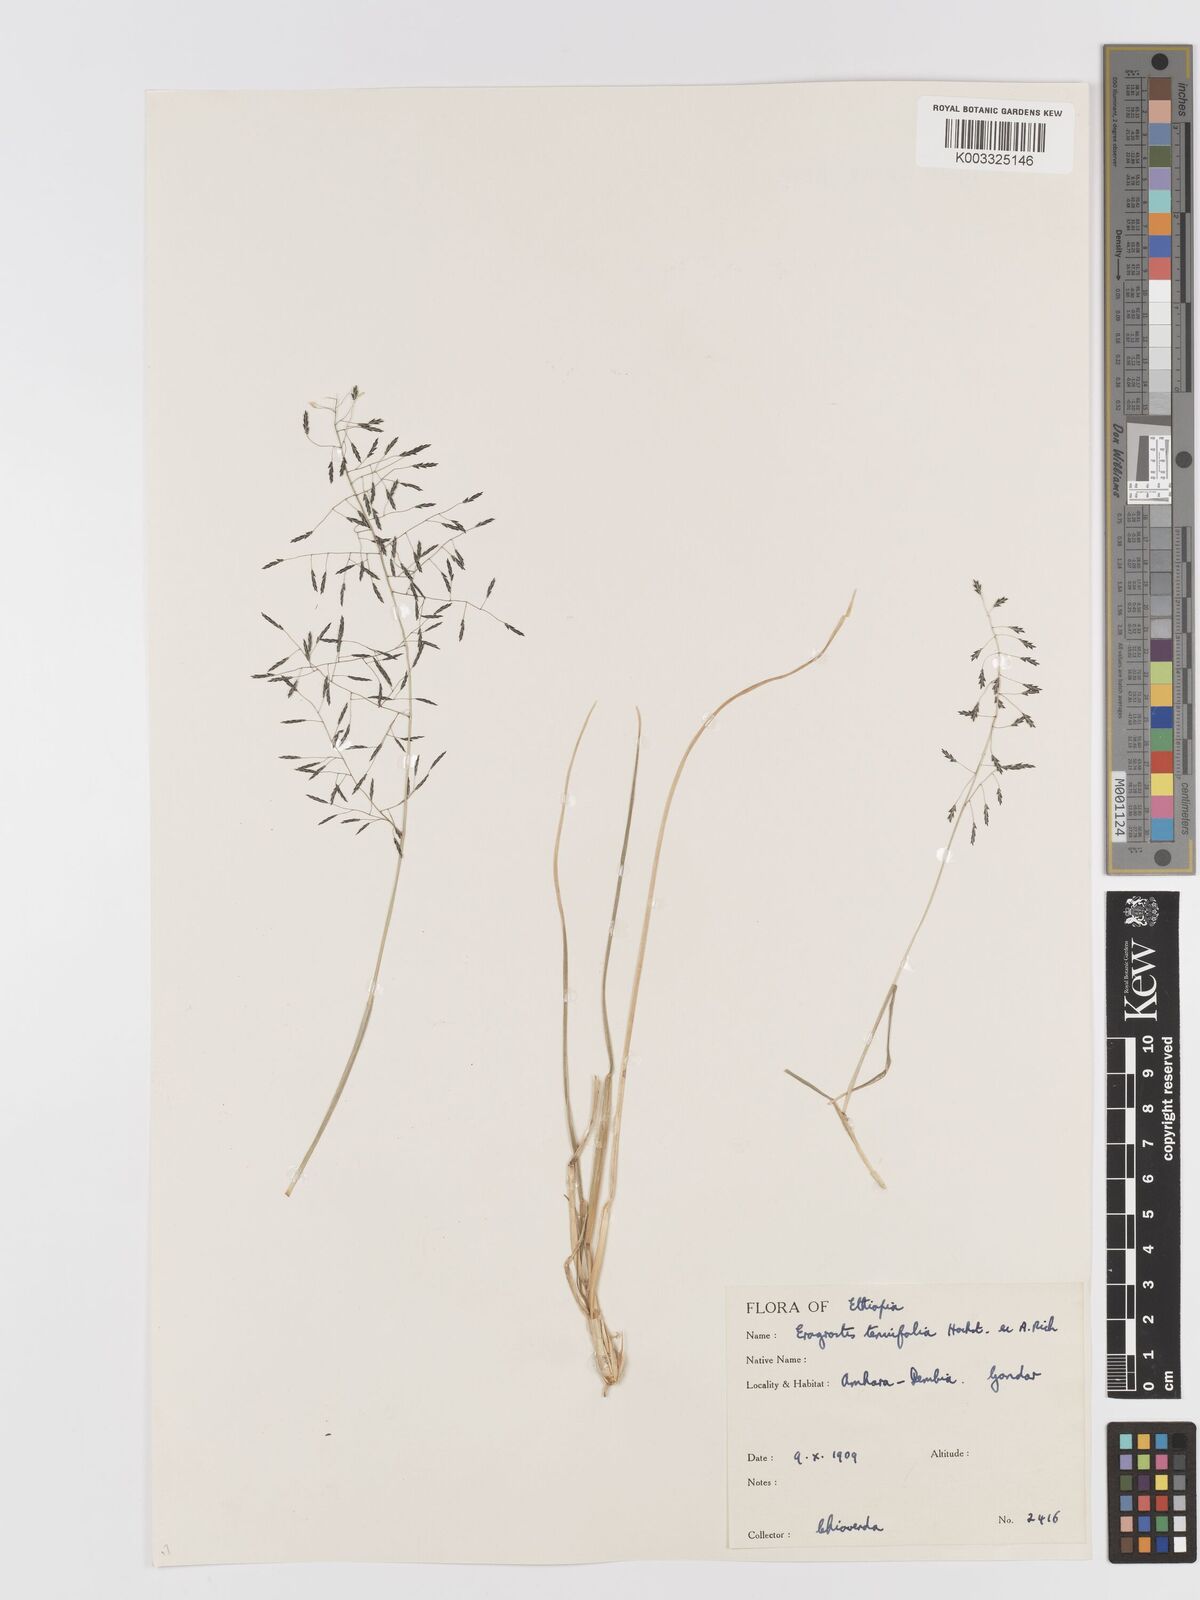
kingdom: Plantae
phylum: Tracheophyta
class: Liliopsida
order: Poales
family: Poaceae
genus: Eragrostis
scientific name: Eragrostis tenuifolia
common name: Elastic grass
